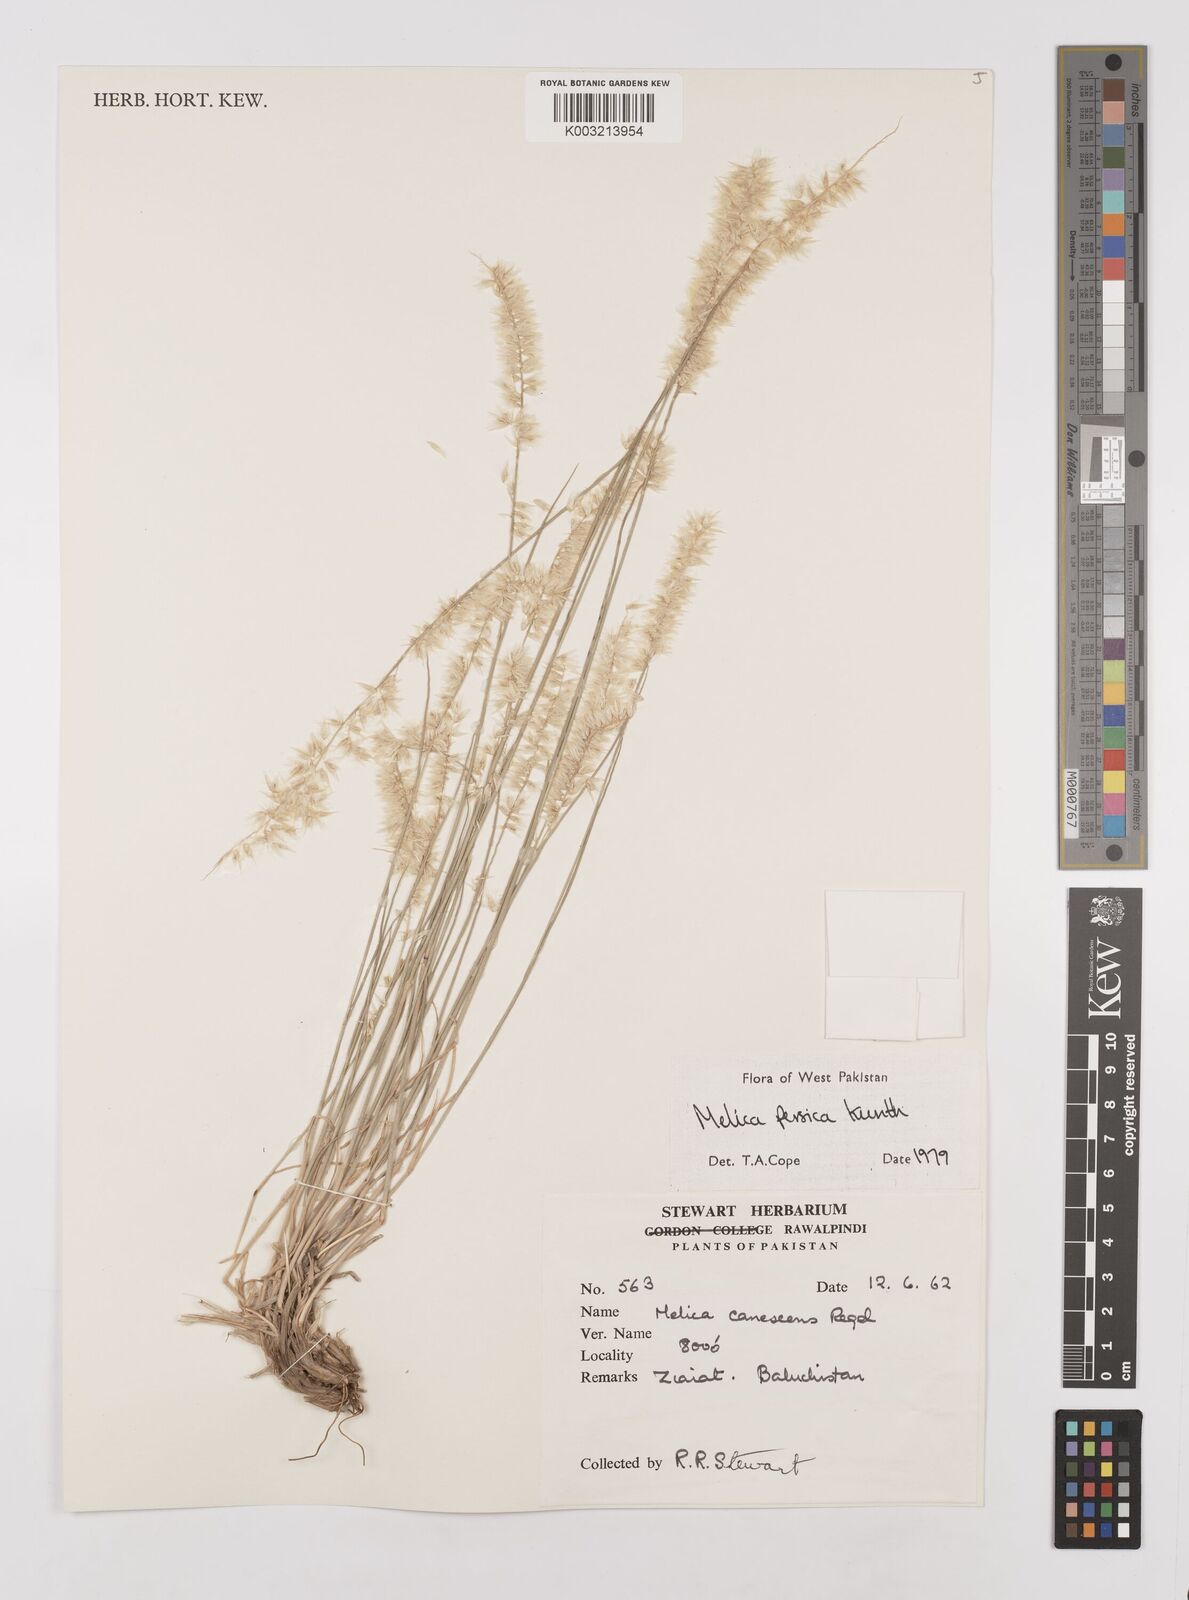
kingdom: Plantae
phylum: Tracheophyta
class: Liliopsida
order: Poales
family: Poaceae
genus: Melica
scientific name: Melica persica
